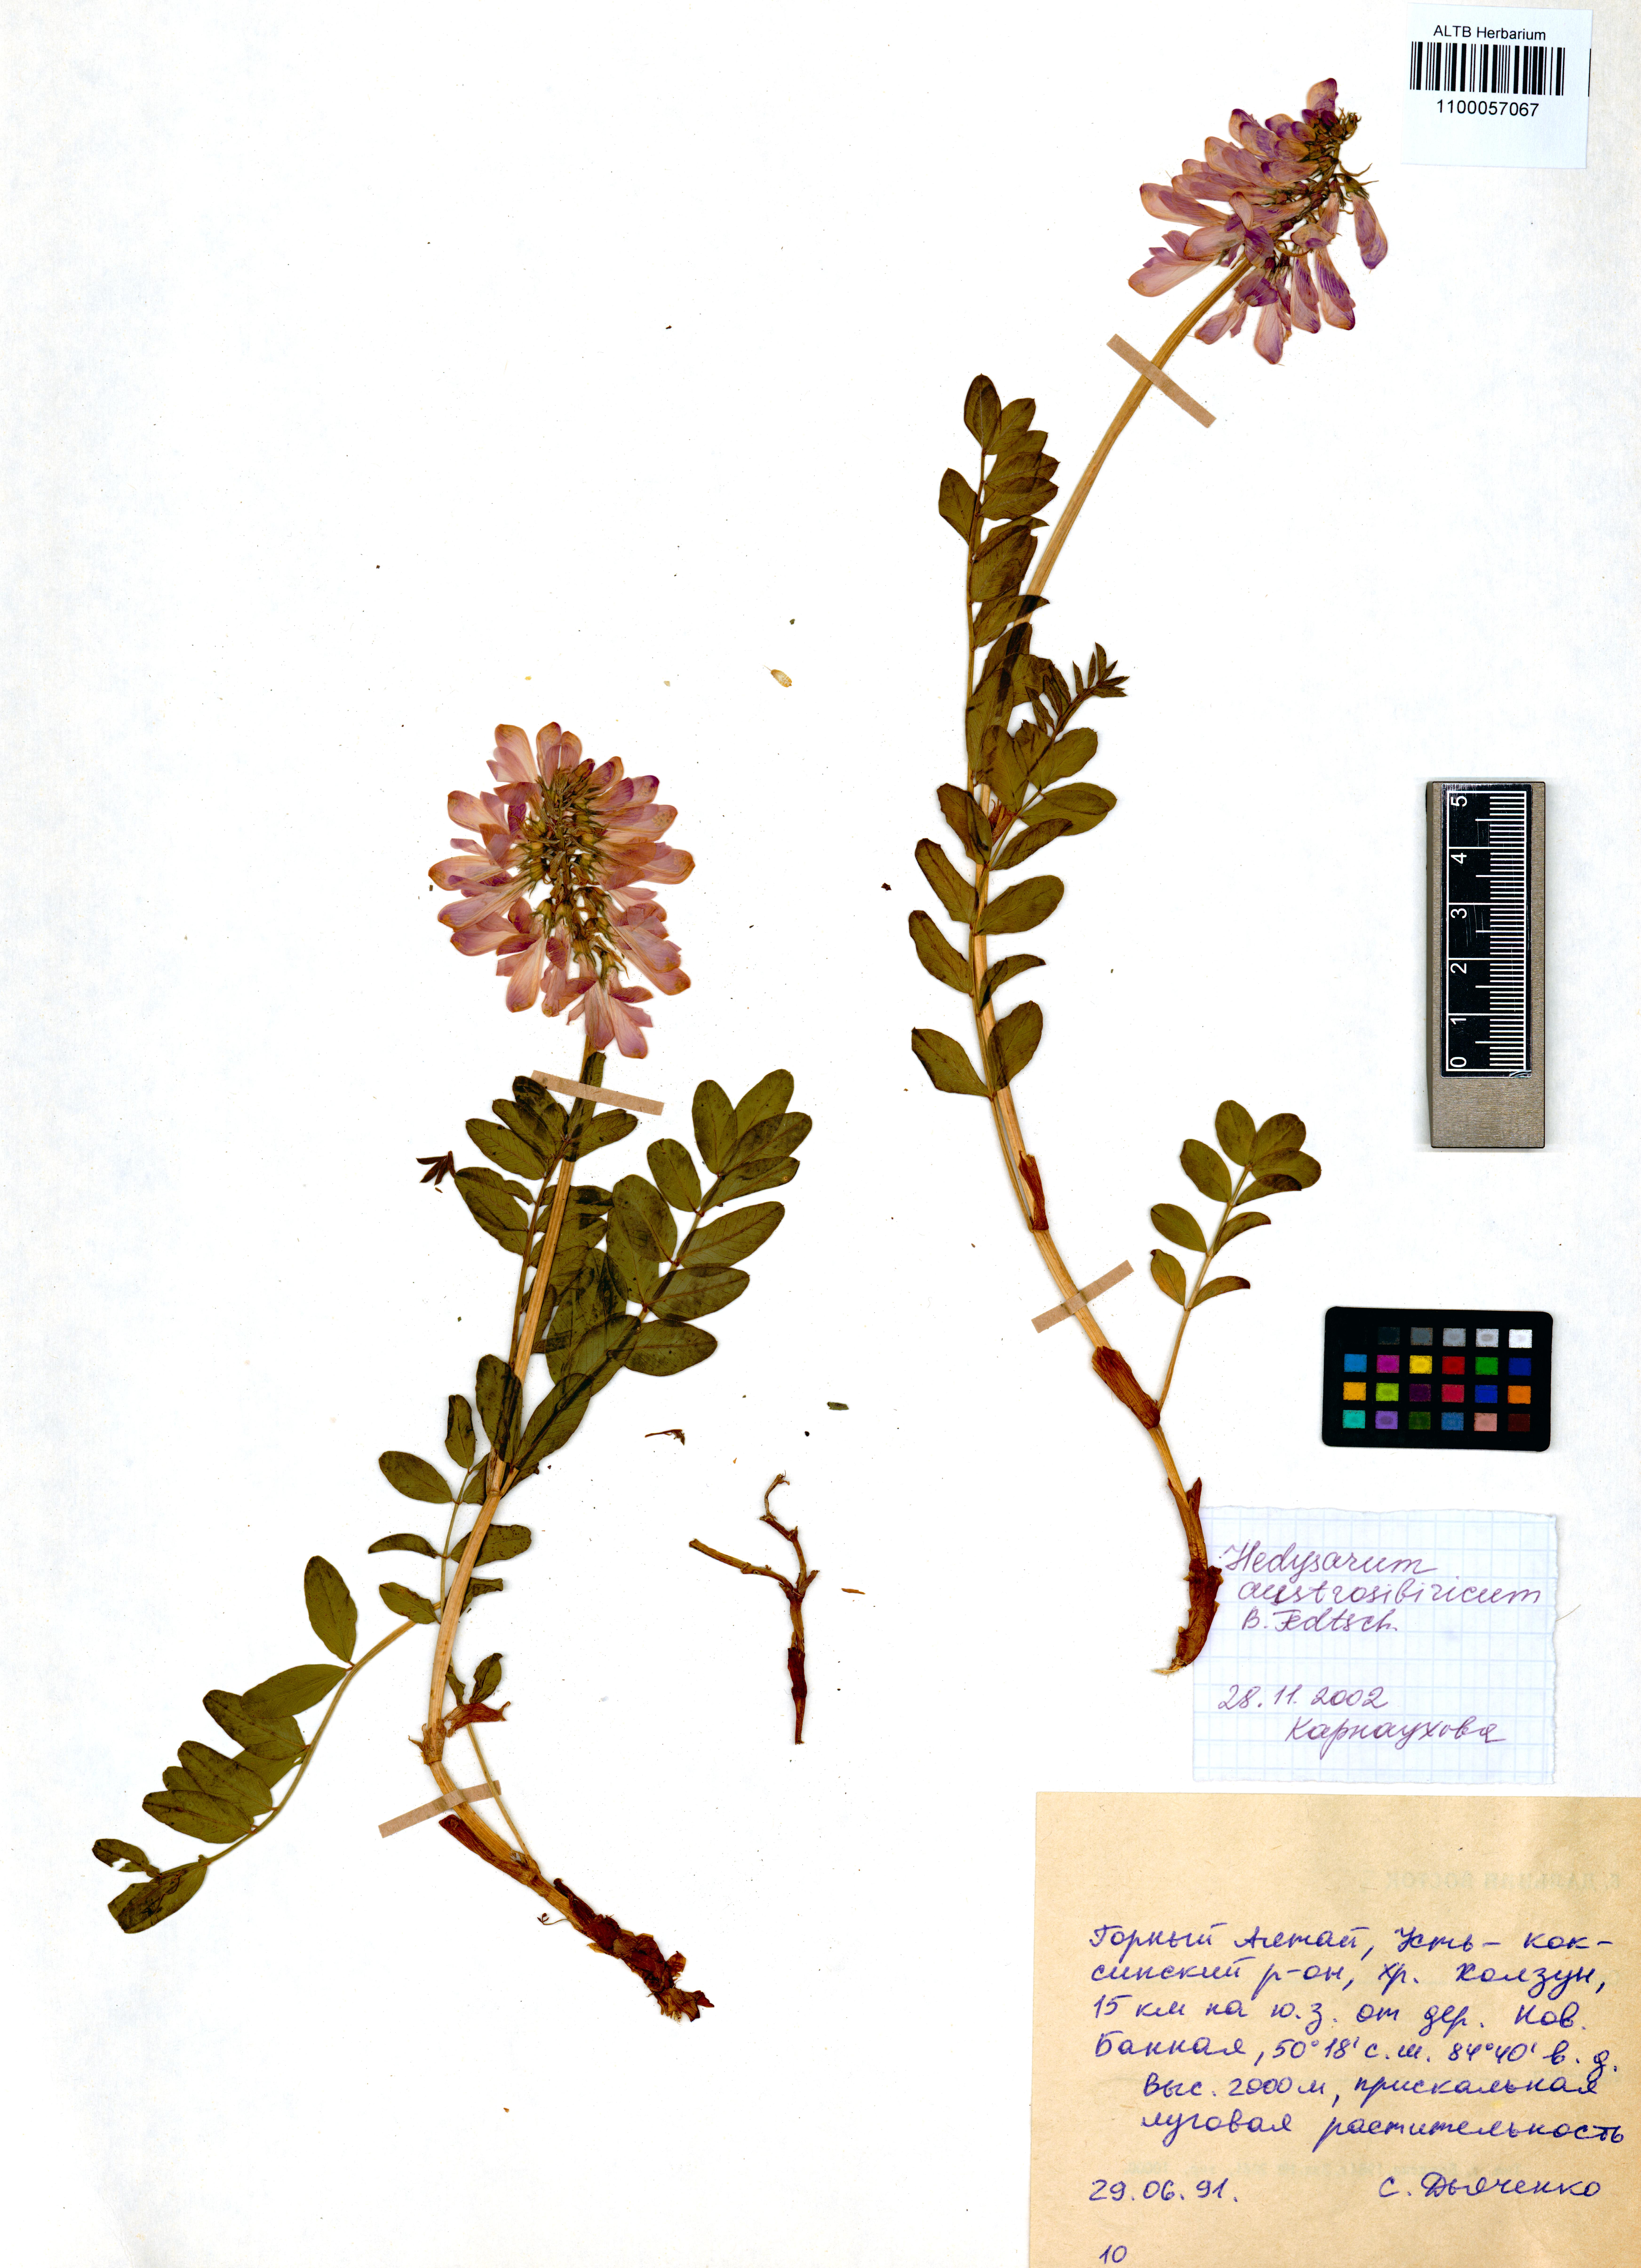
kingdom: Plantae
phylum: Tracheophyta
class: Magnoliopsida
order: Fabales
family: Fabaceae
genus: Hedysarum
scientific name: Hedysarum neglectum
